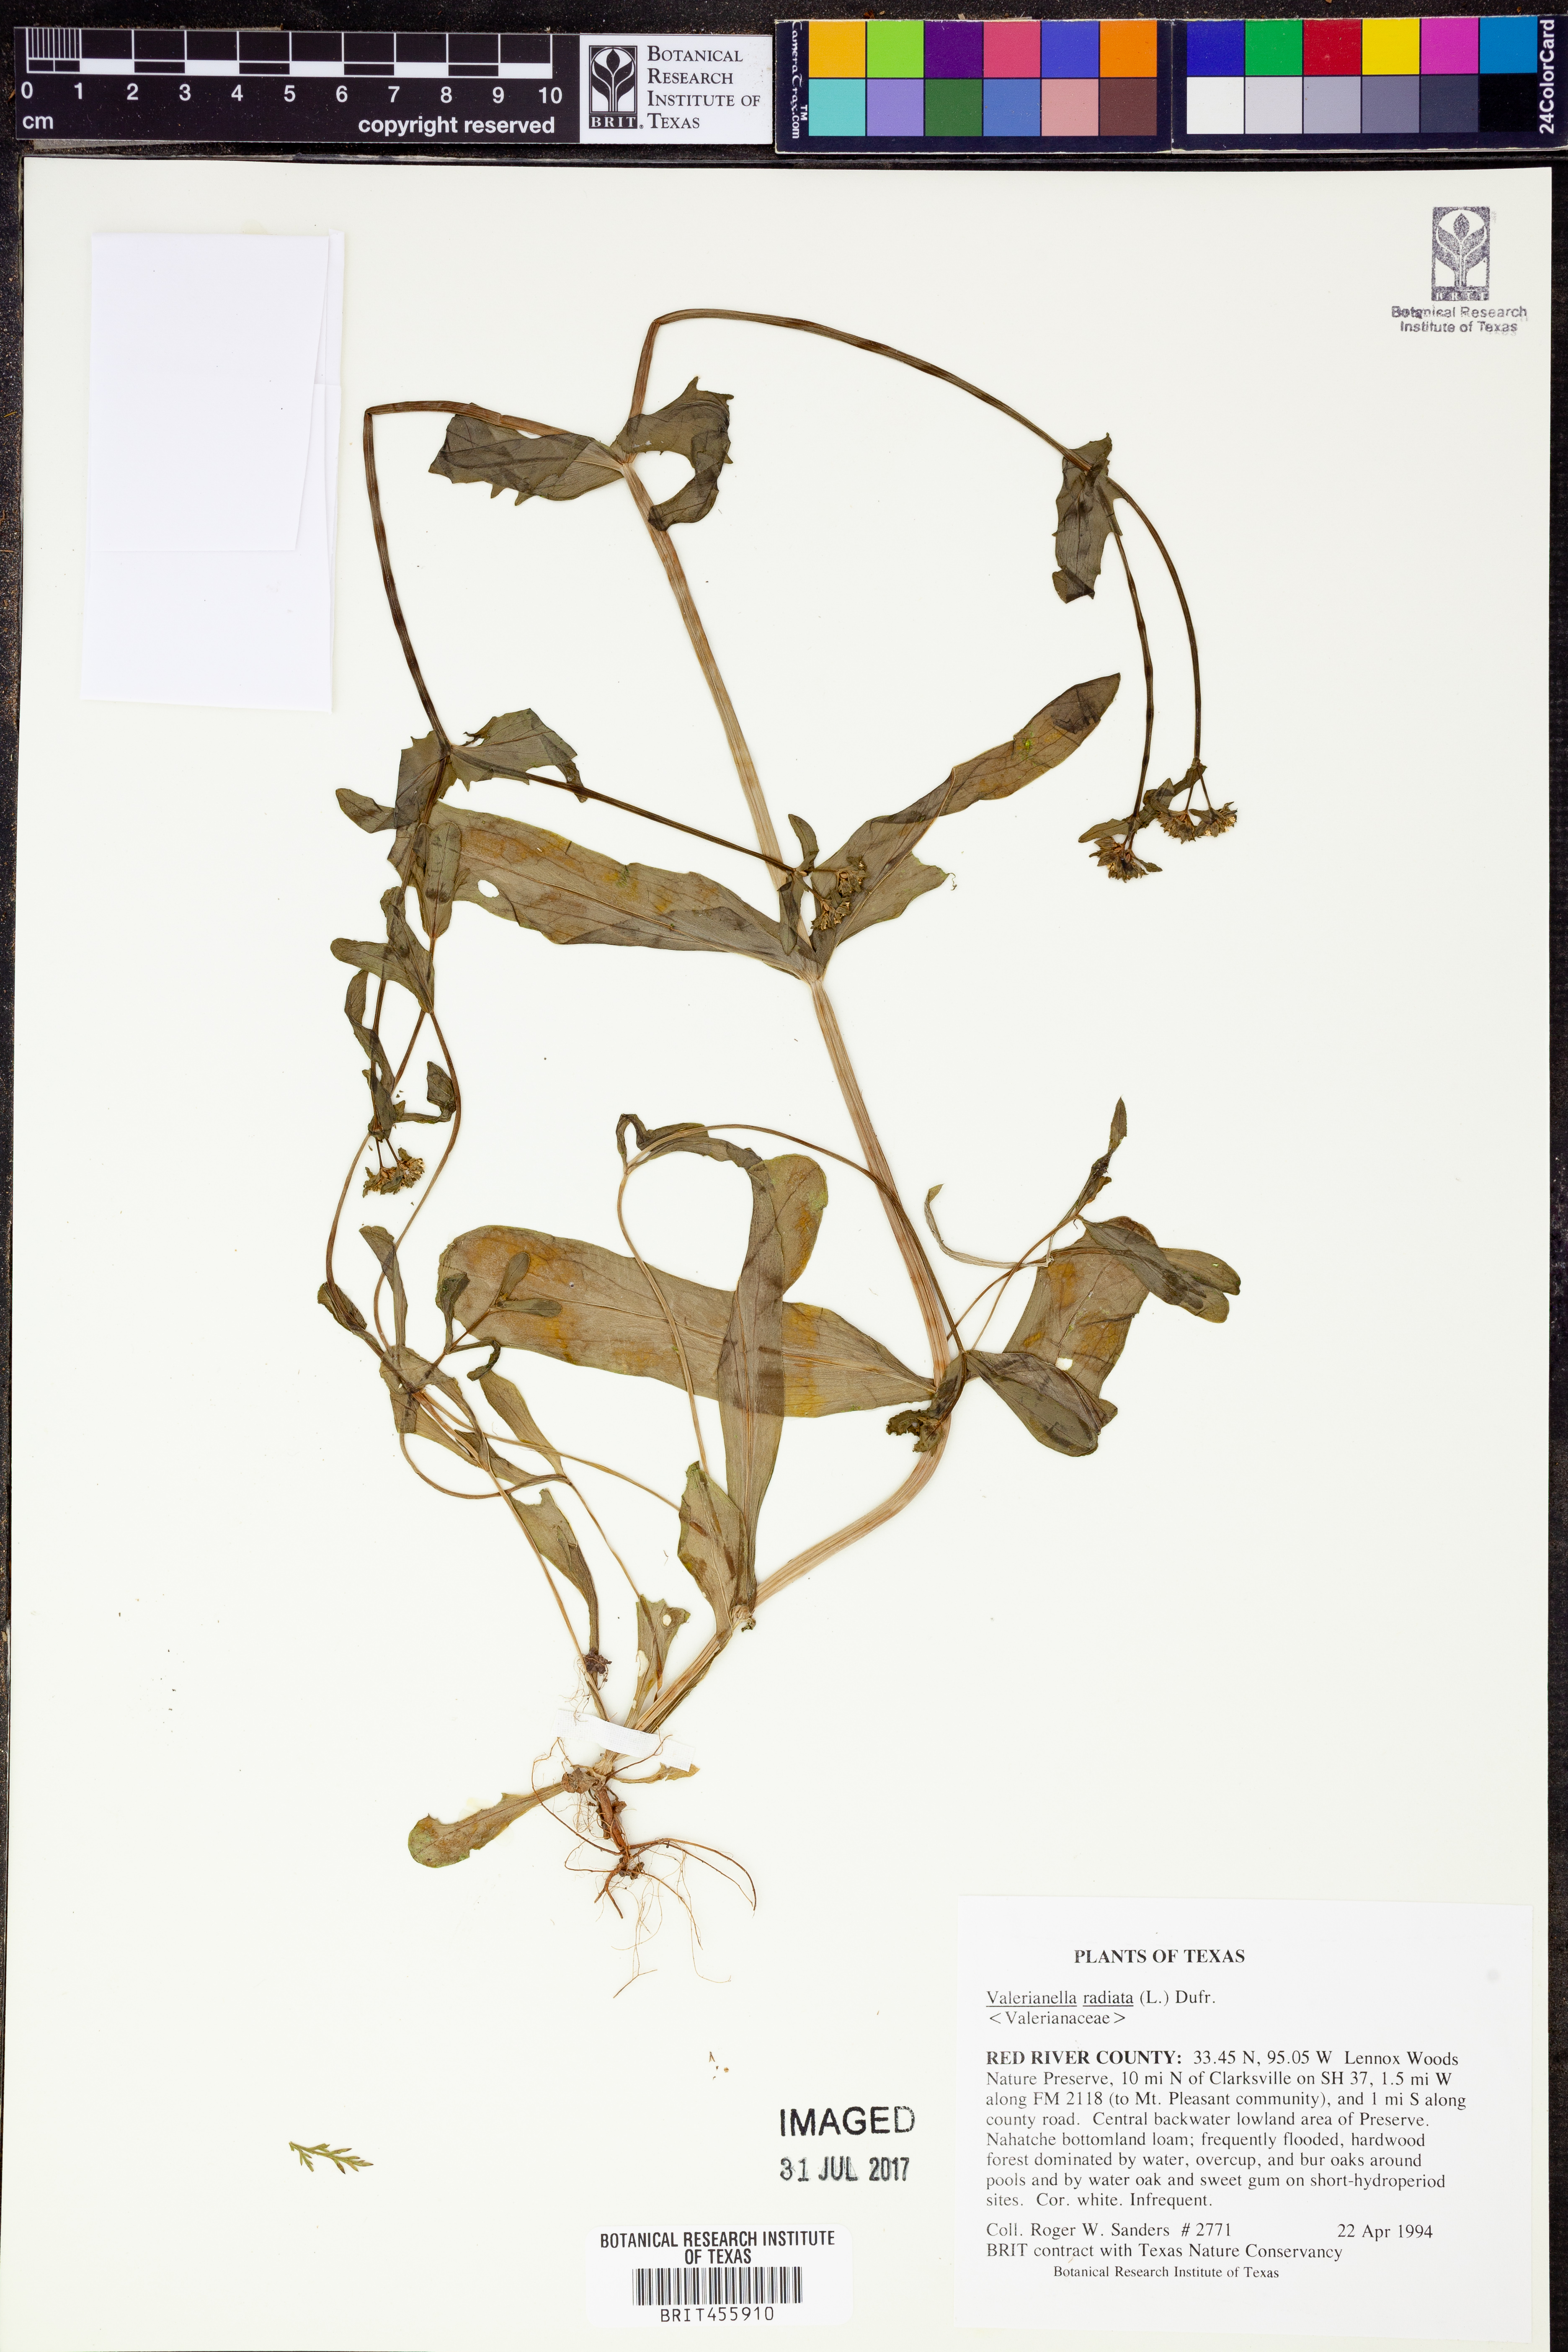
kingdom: Plantae
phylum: Tracheophyta
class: Magnoliopsida
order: Dipsacales
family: Caprifoliaceae
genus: Valerianella
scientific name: Valerianella radiata
